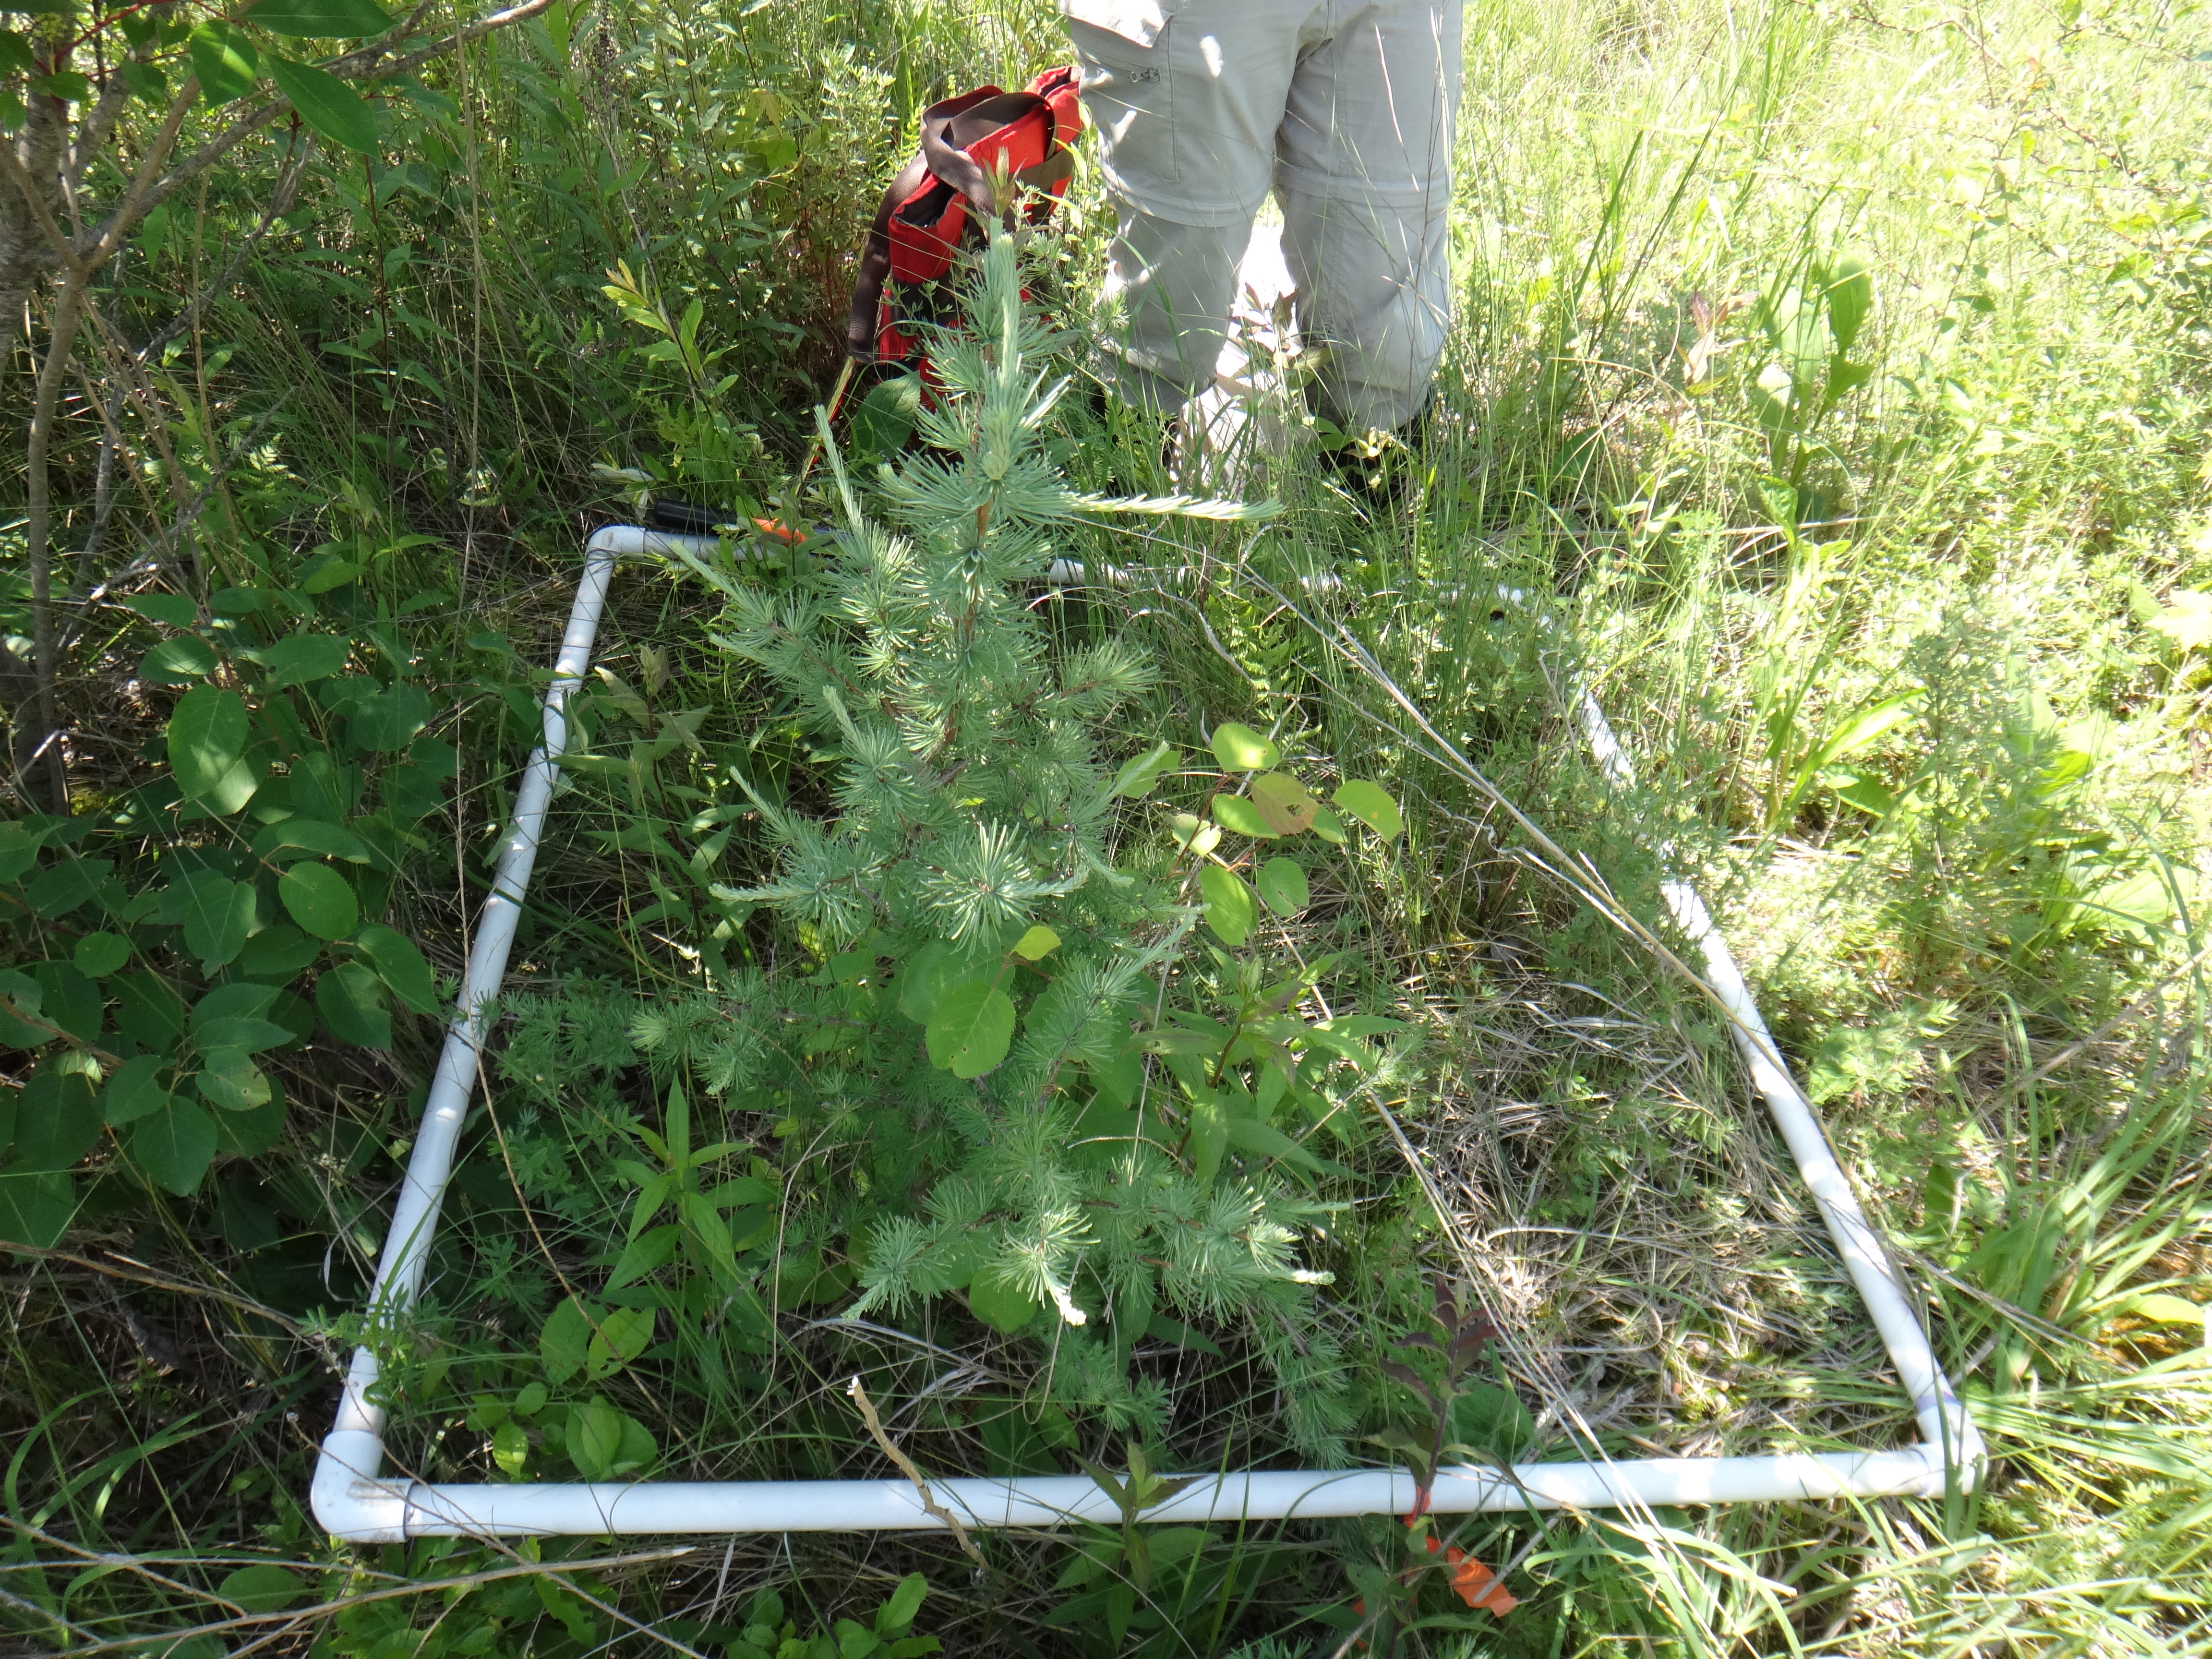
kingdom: Plantae
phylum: Tracheophyta
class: Magnoliopsida
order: Caryophyllales
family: Droseraceae
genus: Drosera
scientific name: Drosera rotundifolia
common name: Round-leaved sundew
